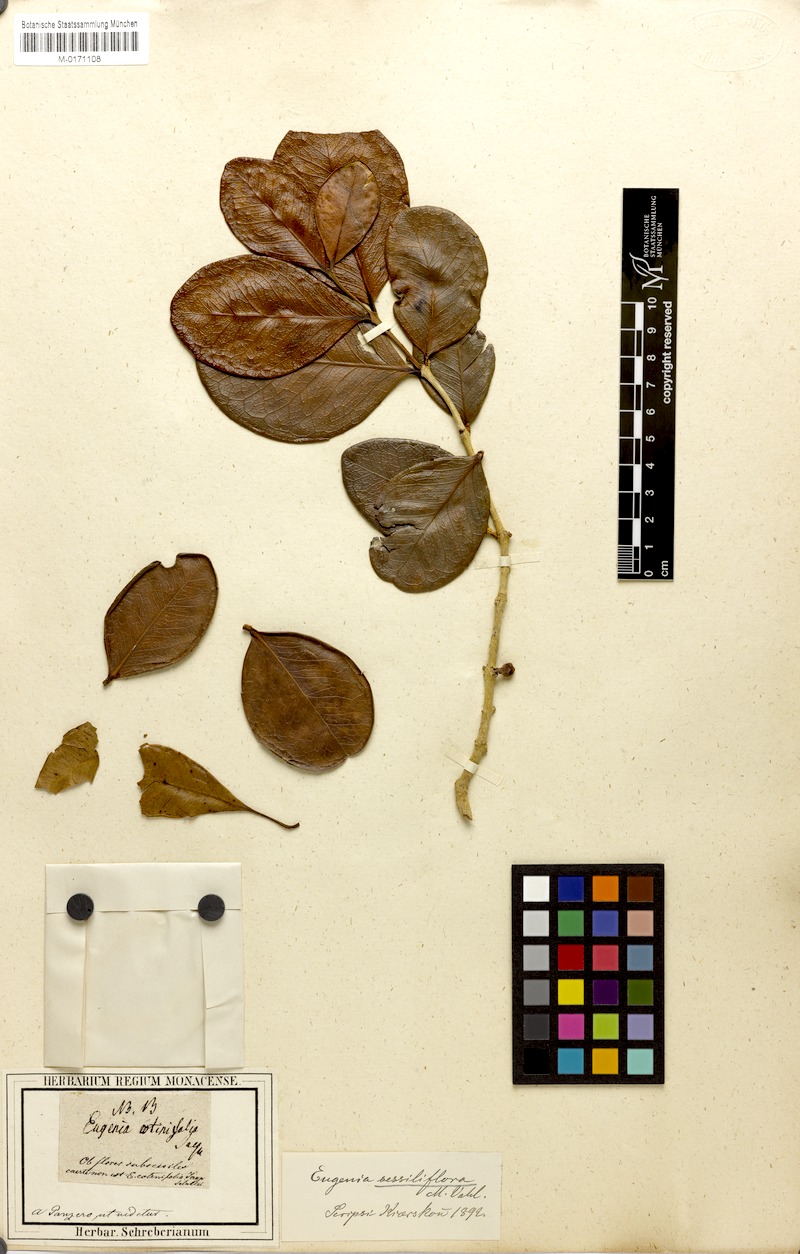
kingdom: Plantae
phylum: Tracheophyta
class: Magnoliopsida
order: Myrtales
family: Myrtaceae
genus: Eugenia
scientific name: Eugenia
